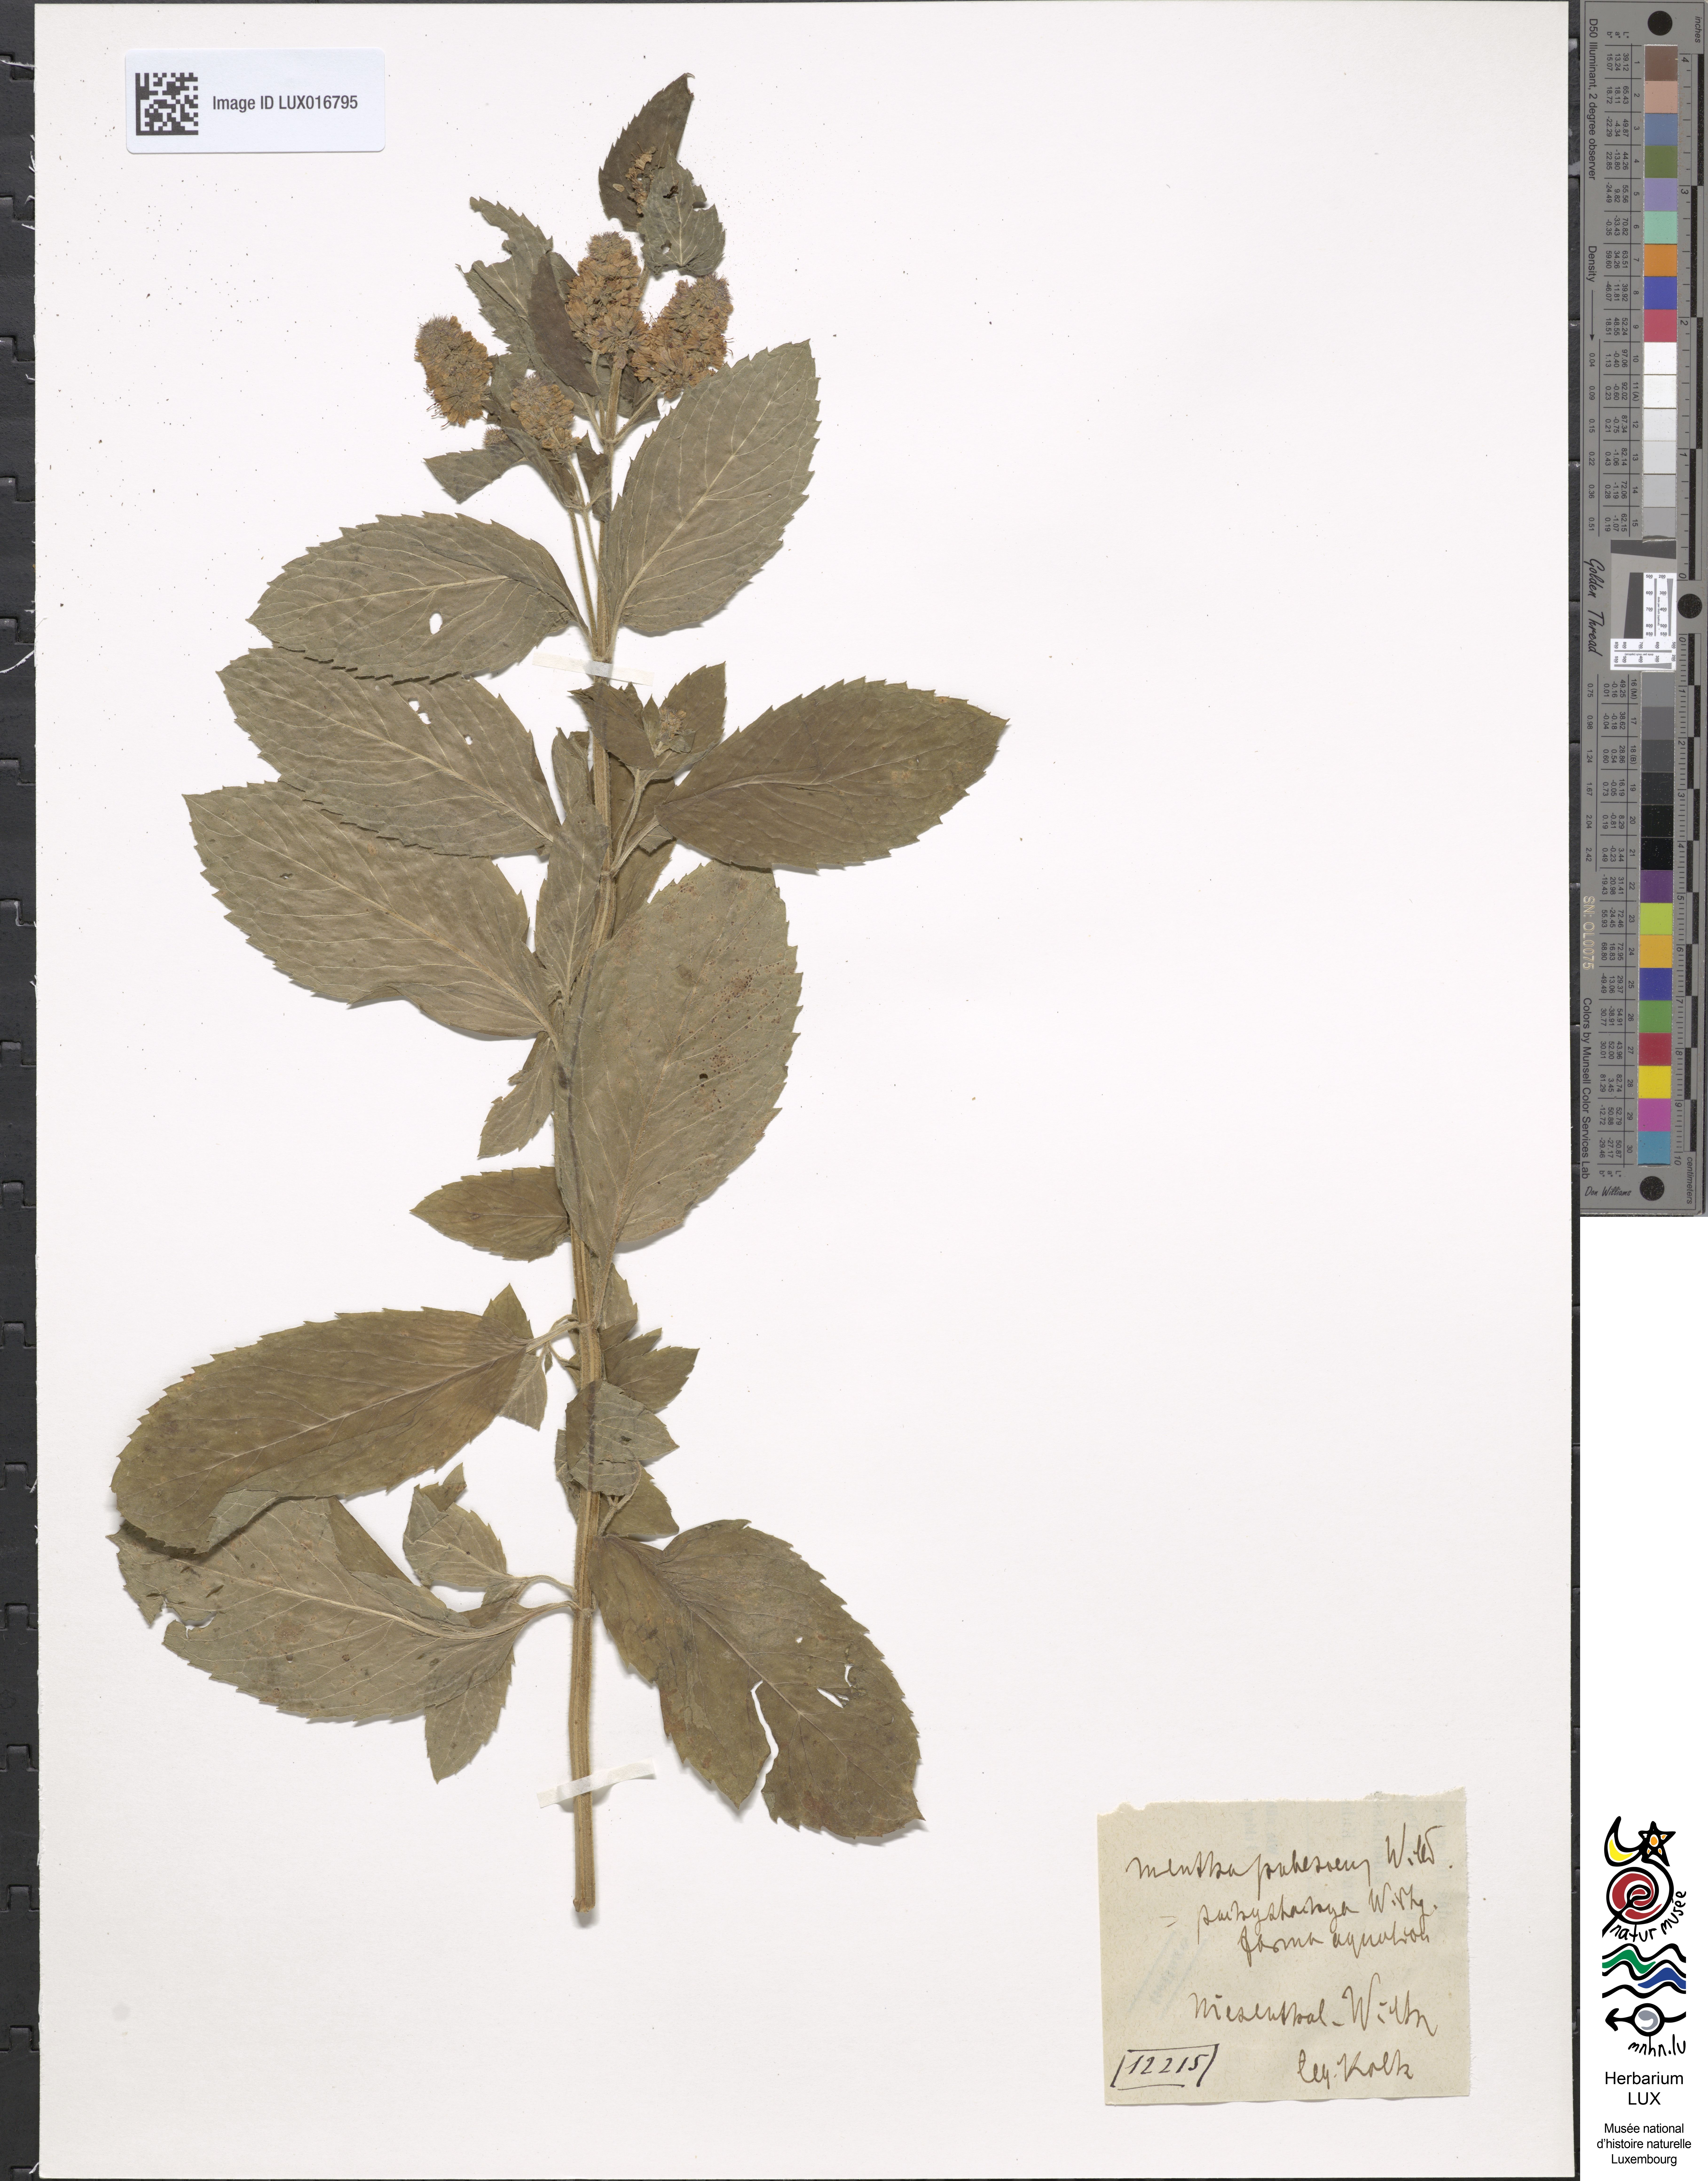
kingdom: Plantae
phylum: Tracheophyta
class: Magnoliopsida
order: Lamiales
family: Lamiaceae
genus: Mentha
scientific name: Mentha dumetorum
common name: Bush-loving mint
